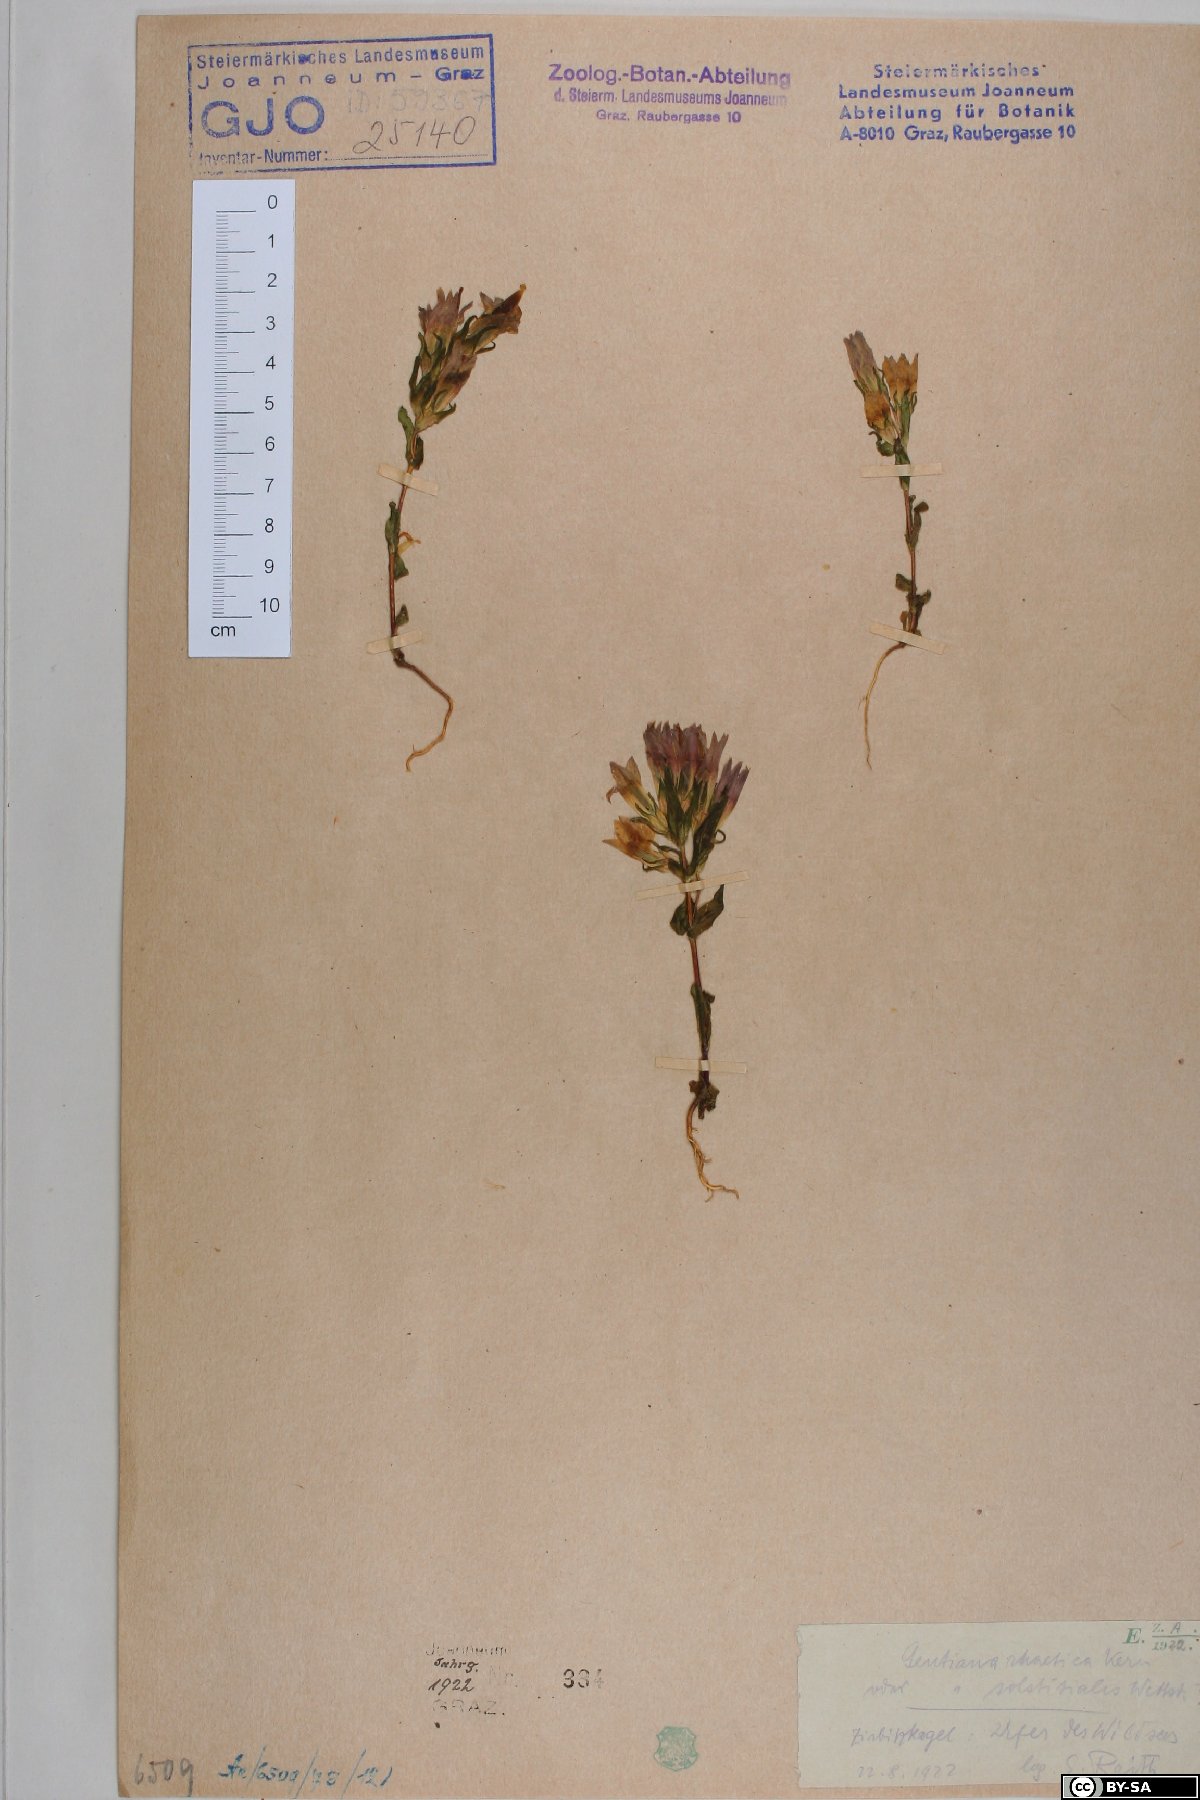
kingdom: Plantae
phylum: Tracheophyta
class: Magnoliopsida
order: Gentianales
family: Gentianaceae
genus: Gentianella
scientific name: Gentianella rhaetica
